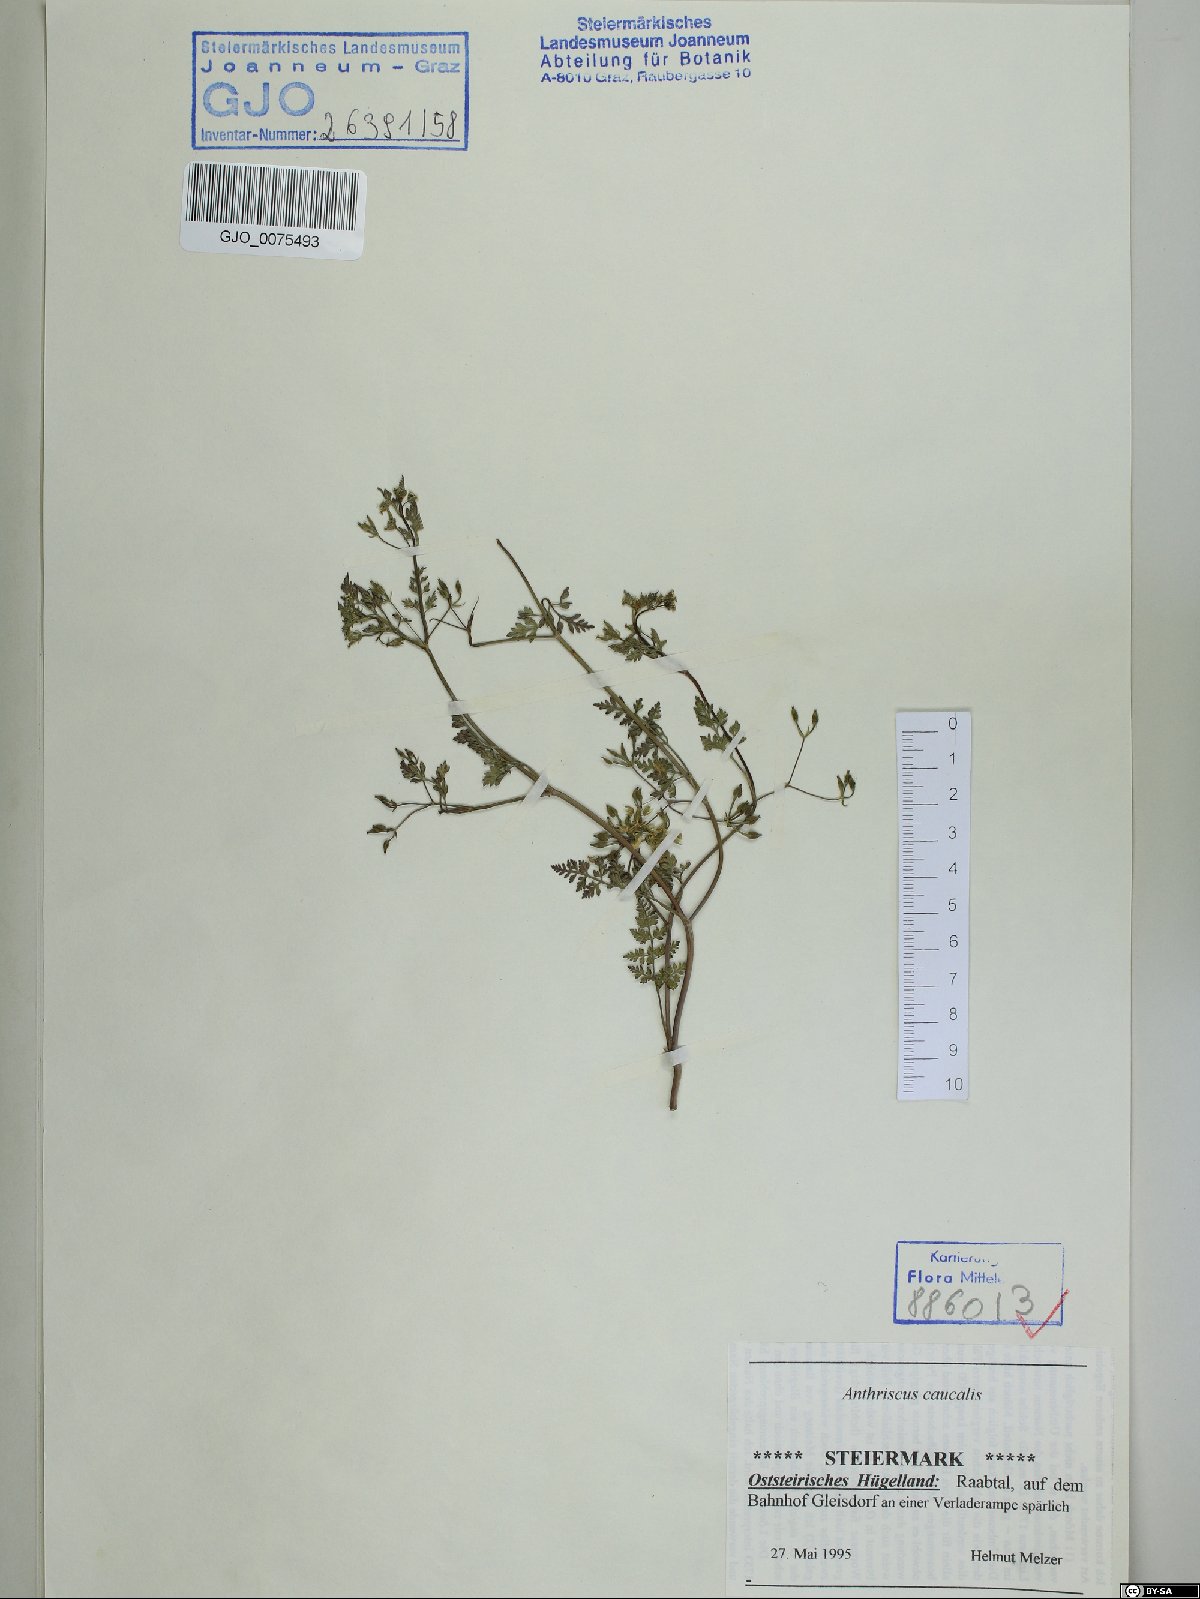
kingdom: Plantae
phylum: Tracheophyta
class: Magnoliopsida
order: Apiales
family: Apiaceae
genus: Anthriscus
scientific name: Anthriscus caucalis
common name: Bur chervil
